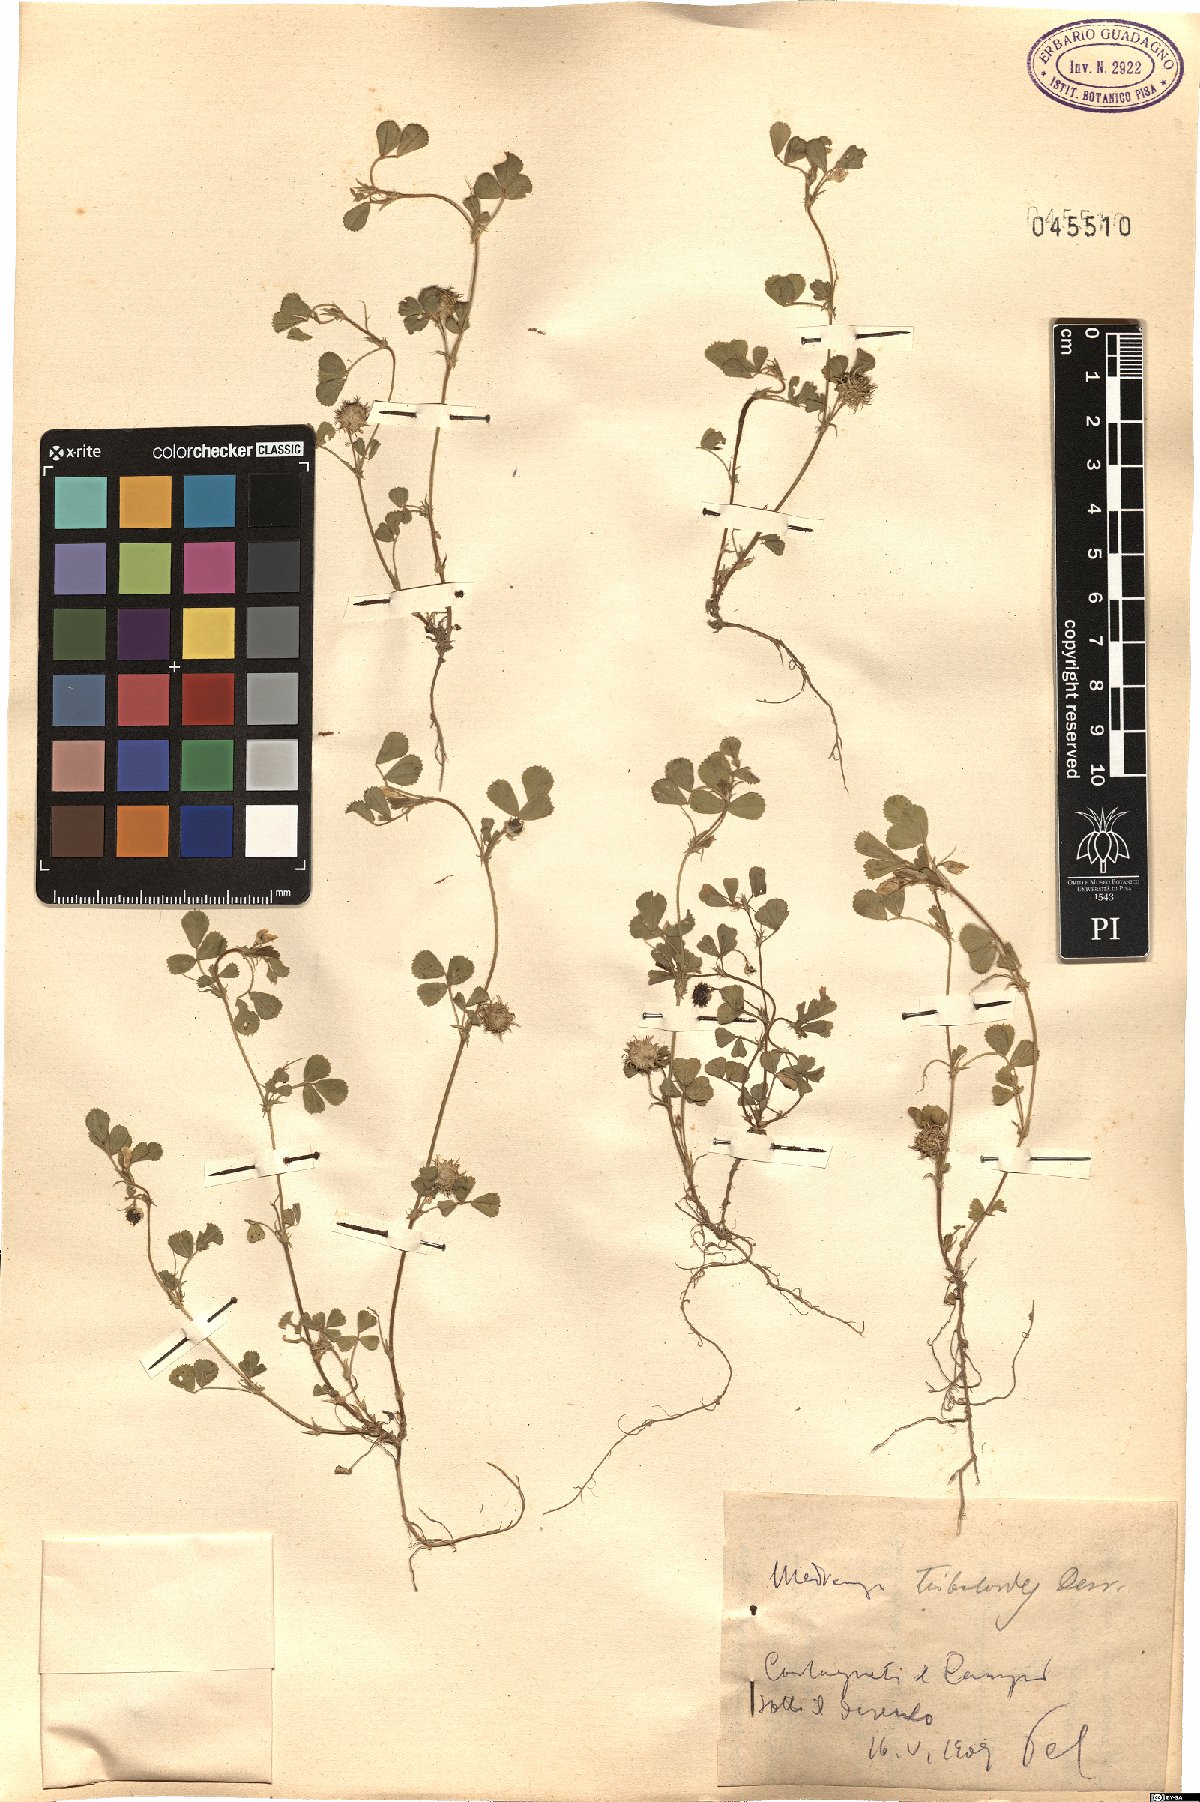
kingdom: Plantae
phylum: Tracheophyta
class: Magnoliopsida
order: Fabales
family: Fabaceae
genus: Medicago
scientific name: Medicago truncatula
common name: Strong-spined medick
